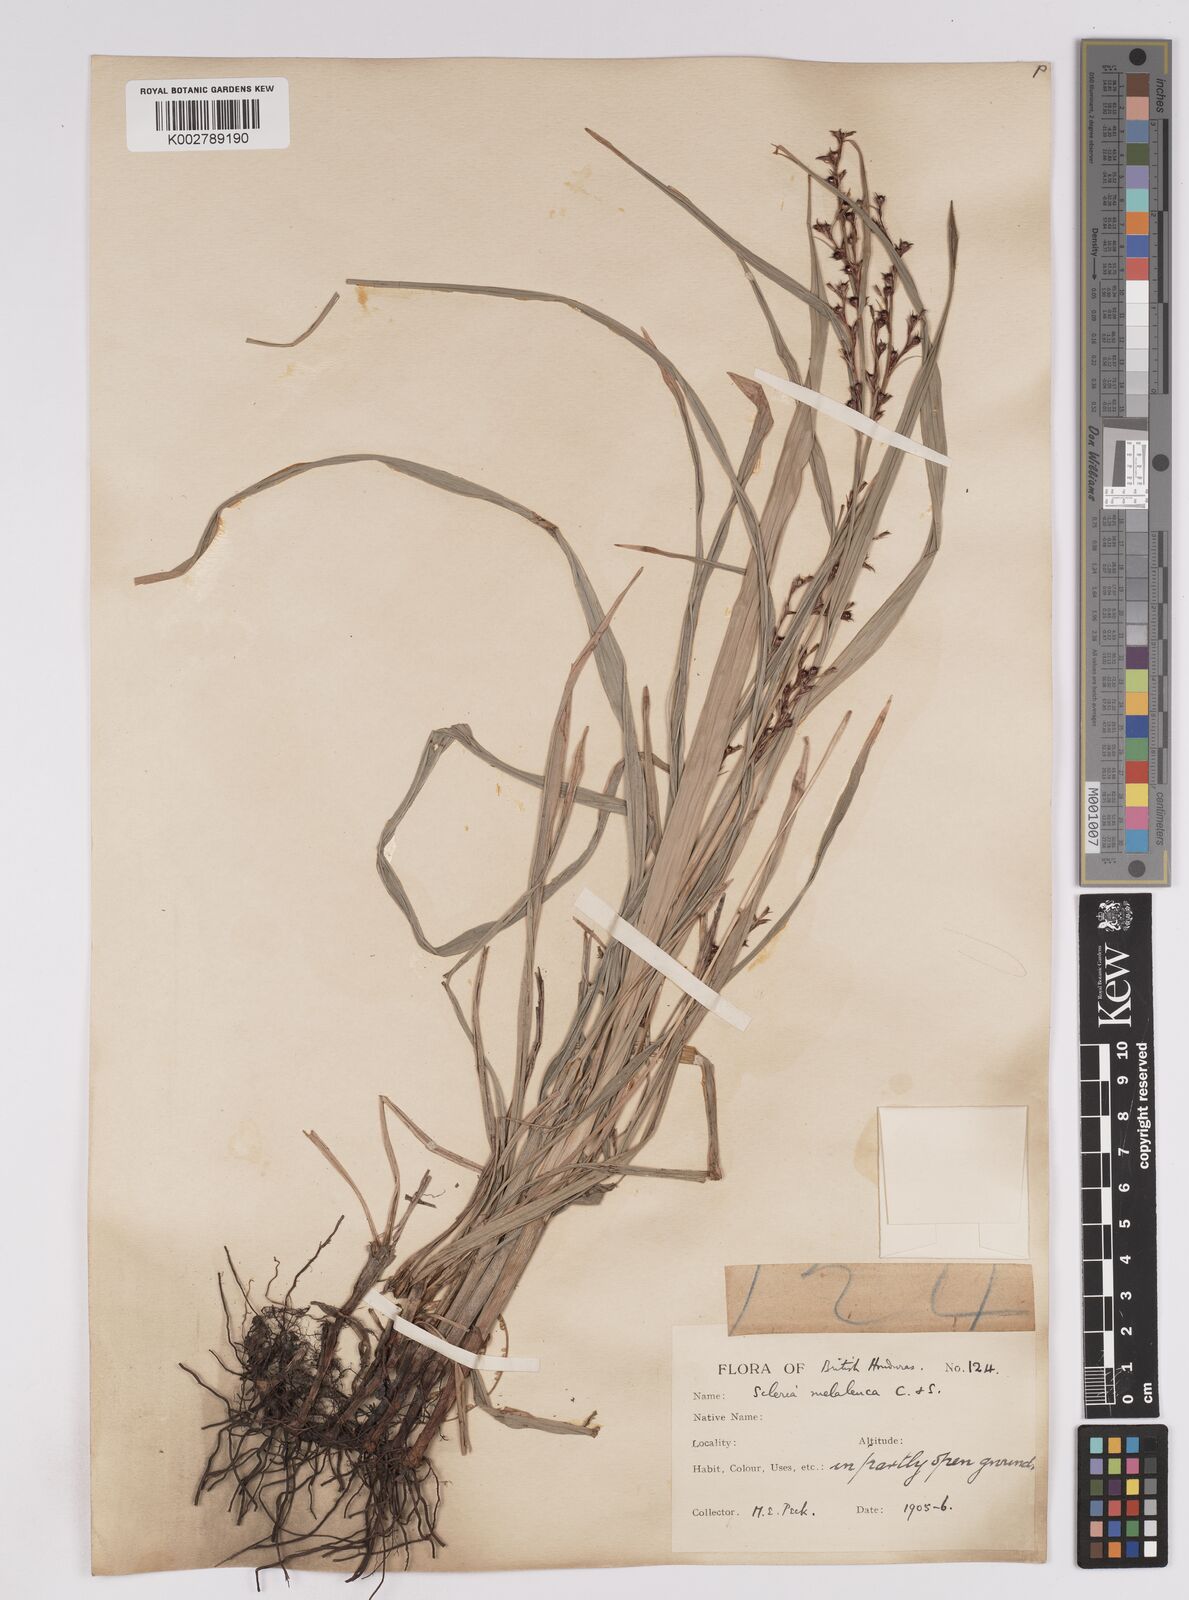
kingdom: Plantae
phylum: Tracheophyta
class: Liliopsida
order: Poales
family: Cyperaceae
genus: Scleria
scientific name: Scleria gaertneri
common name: Cortadera blanca
